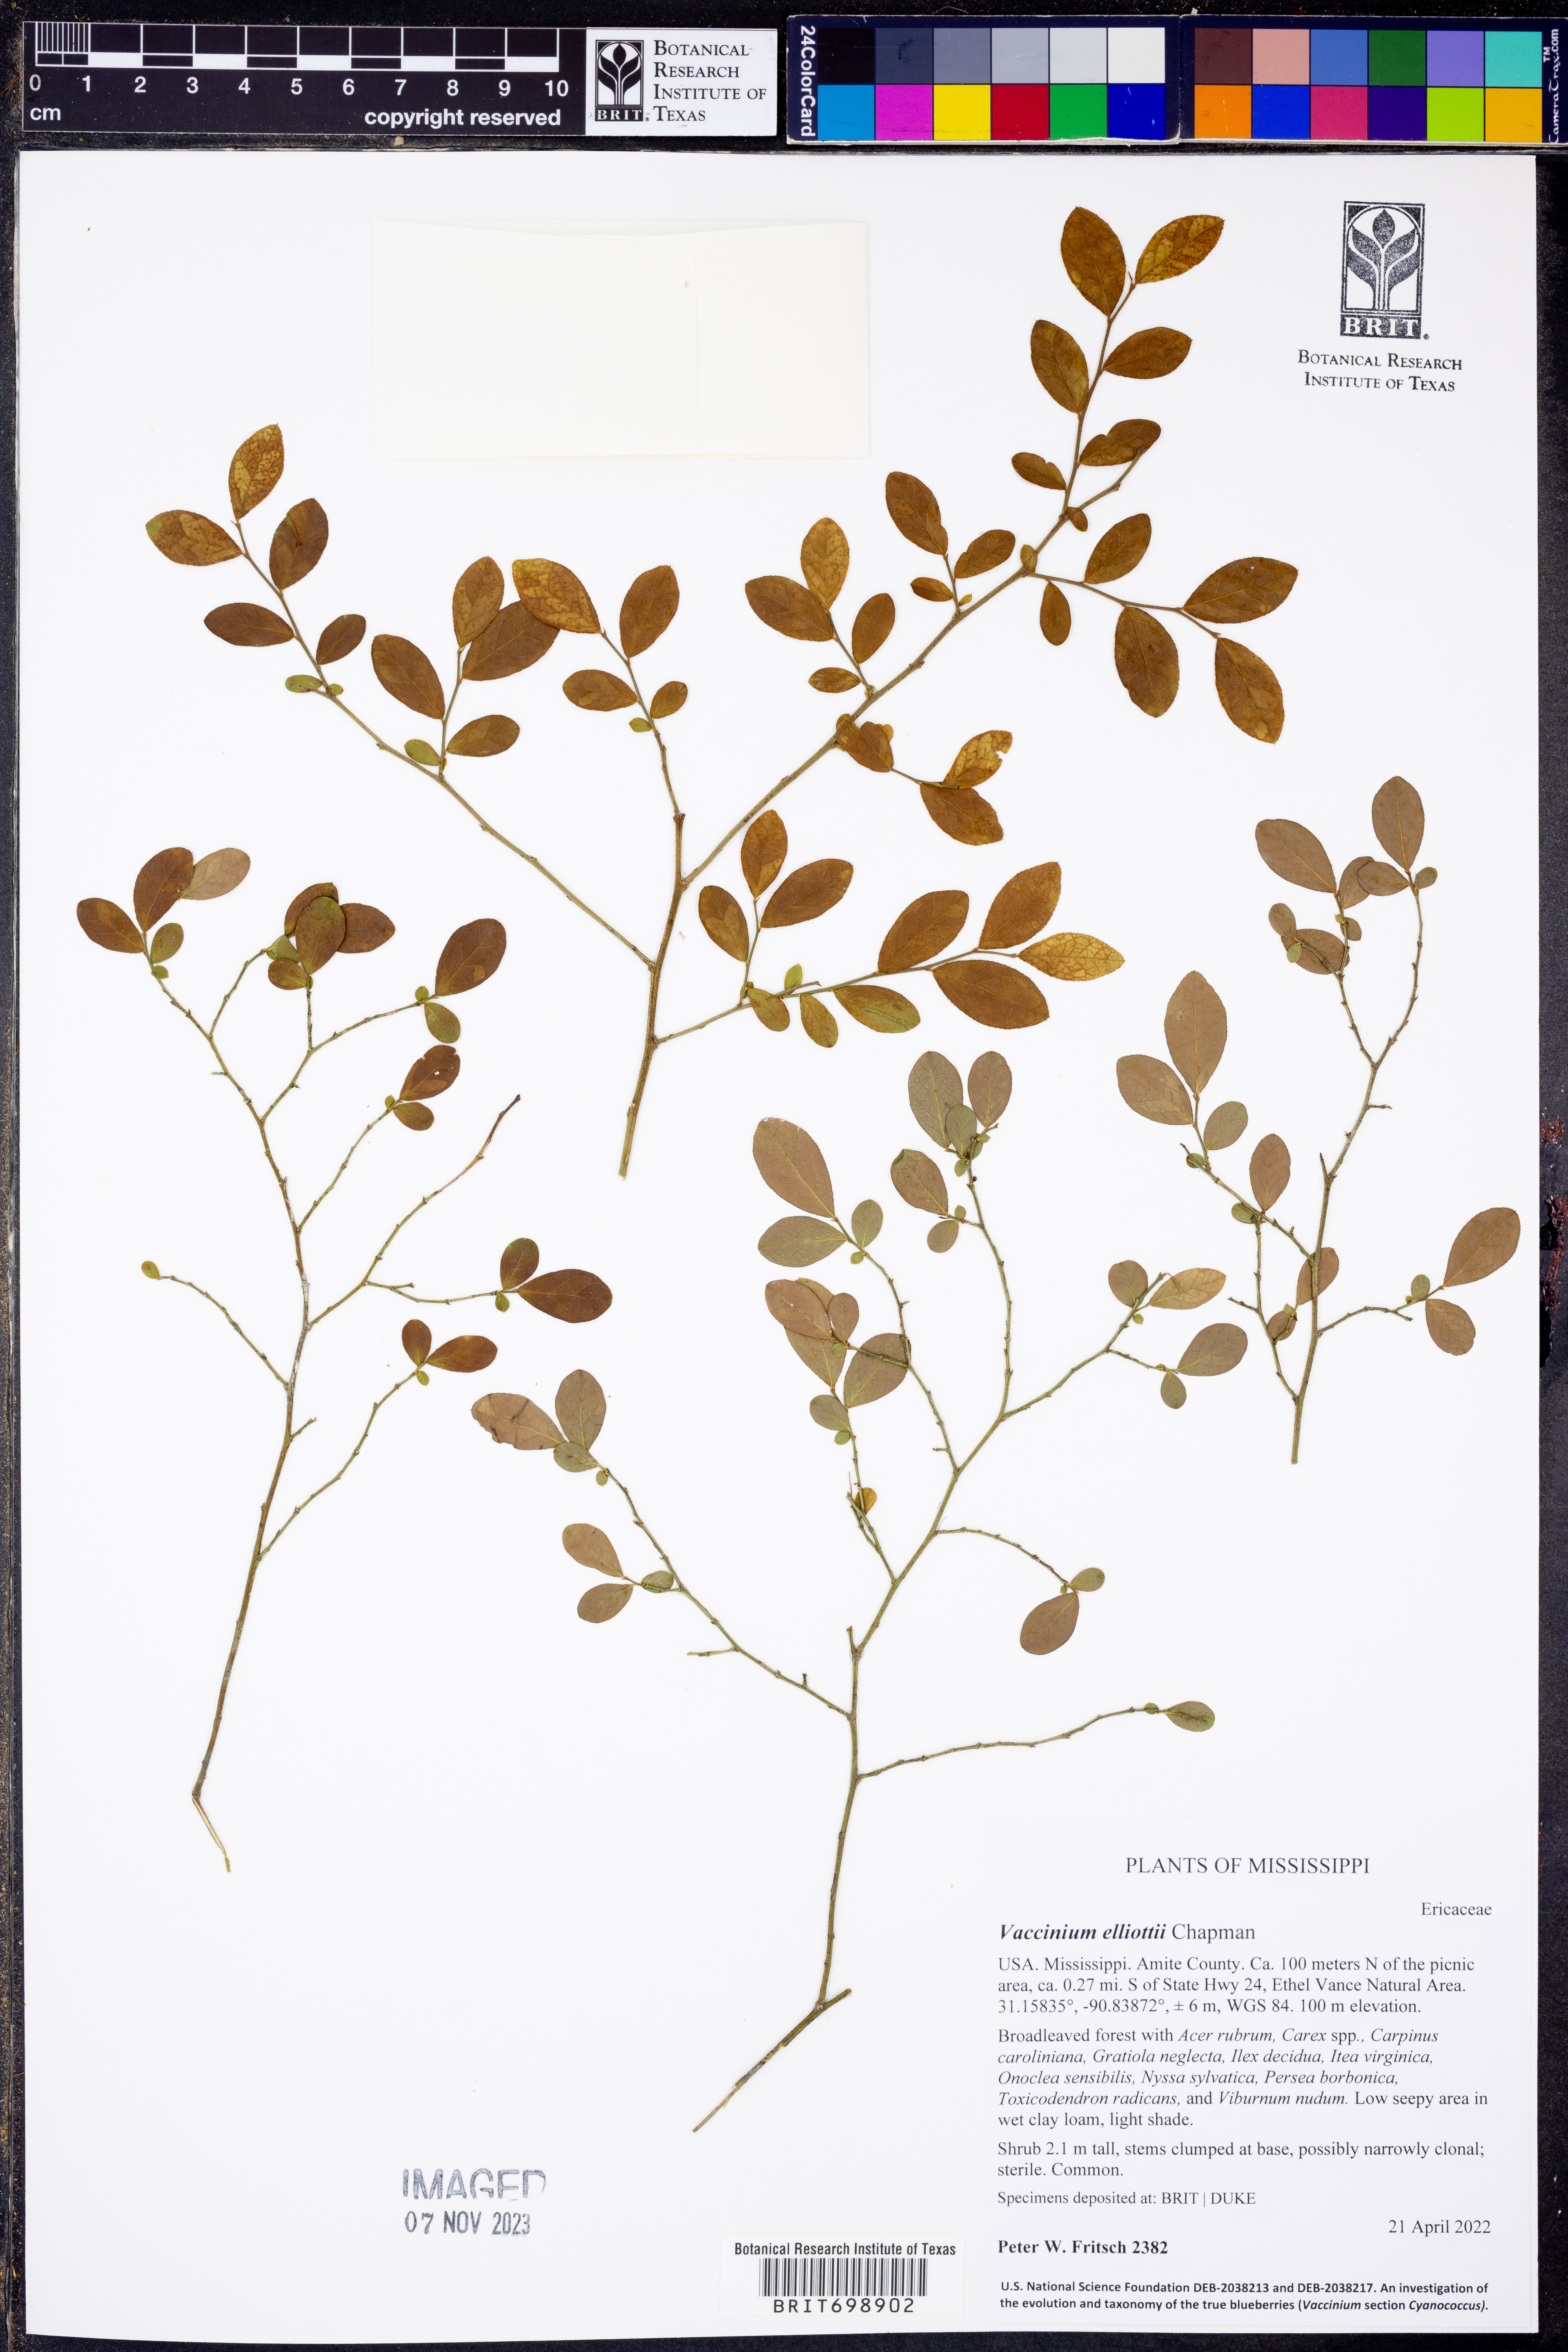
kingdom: Plantae
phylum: Tracheophyta
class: Magnoliopsida
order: Ericales
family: Ericaceae
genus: Vaccinium
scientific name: Vaccinium corymbosum
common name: Blueberry
